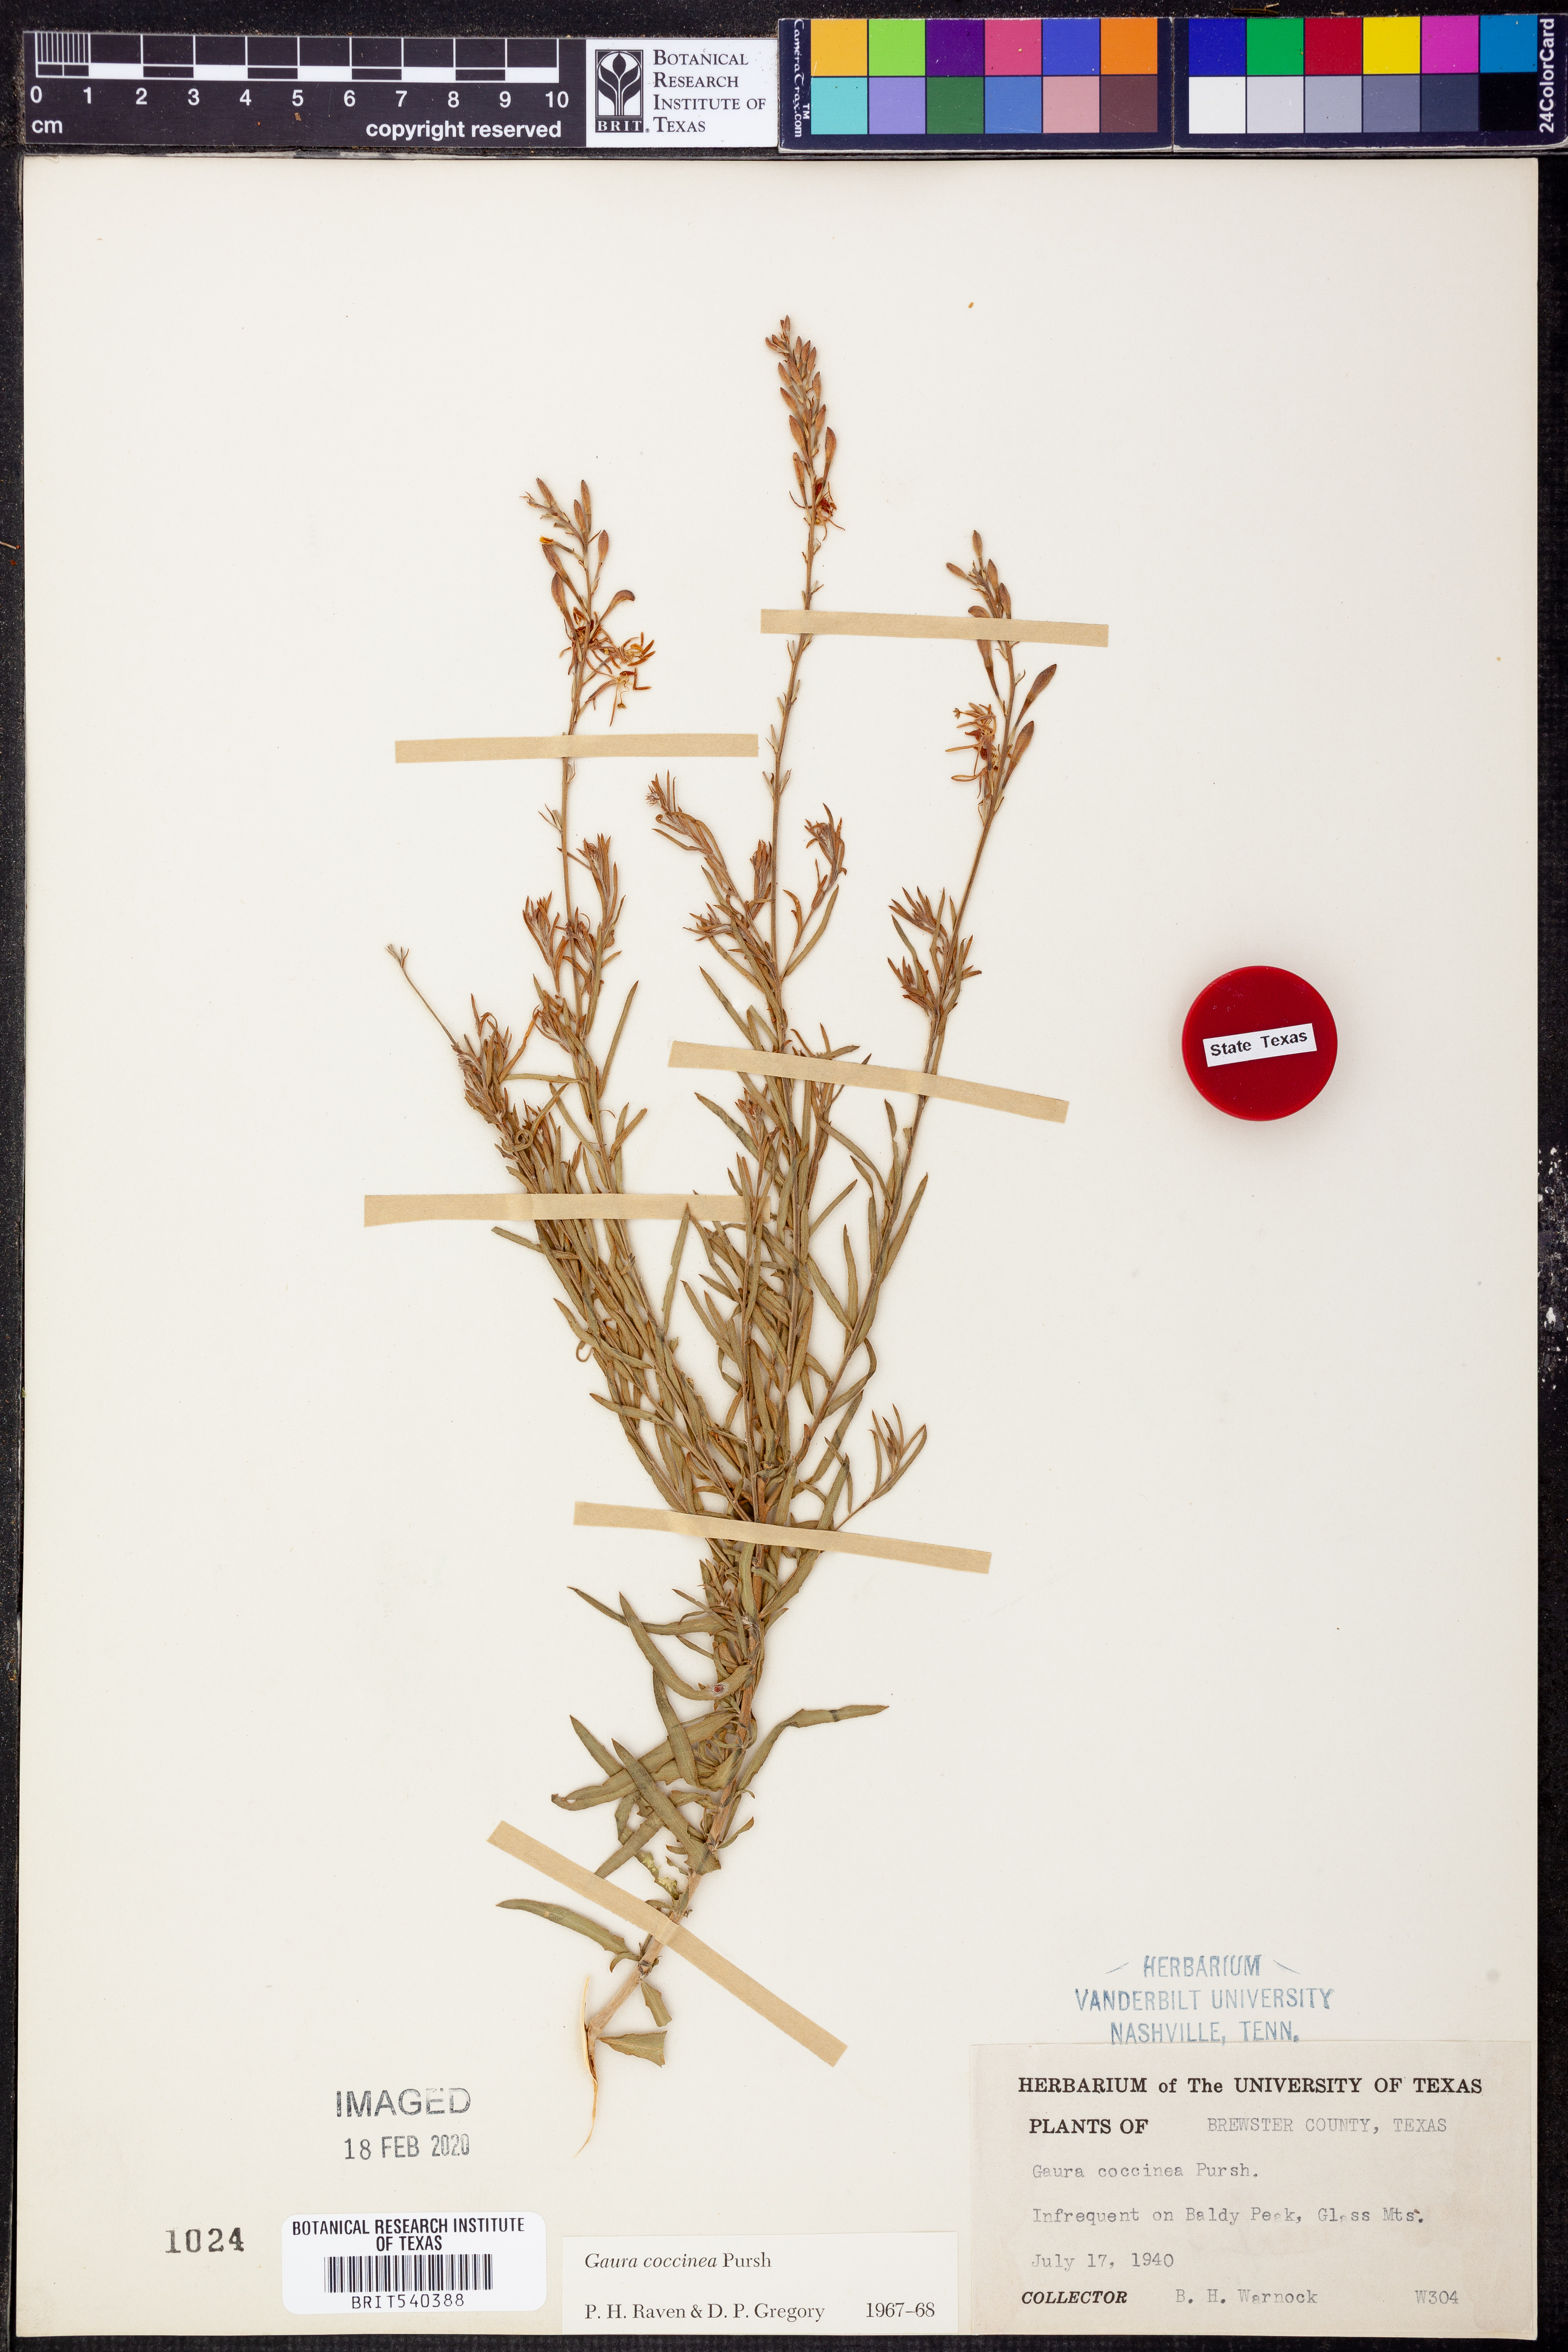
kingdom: Plantae
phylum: Tracheophyta
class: Magnoliopsida
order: Myrtales
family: Onagraceae
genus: Oenothera
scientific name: Oenothera suffrutescens
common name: Scarlet beeblossom
